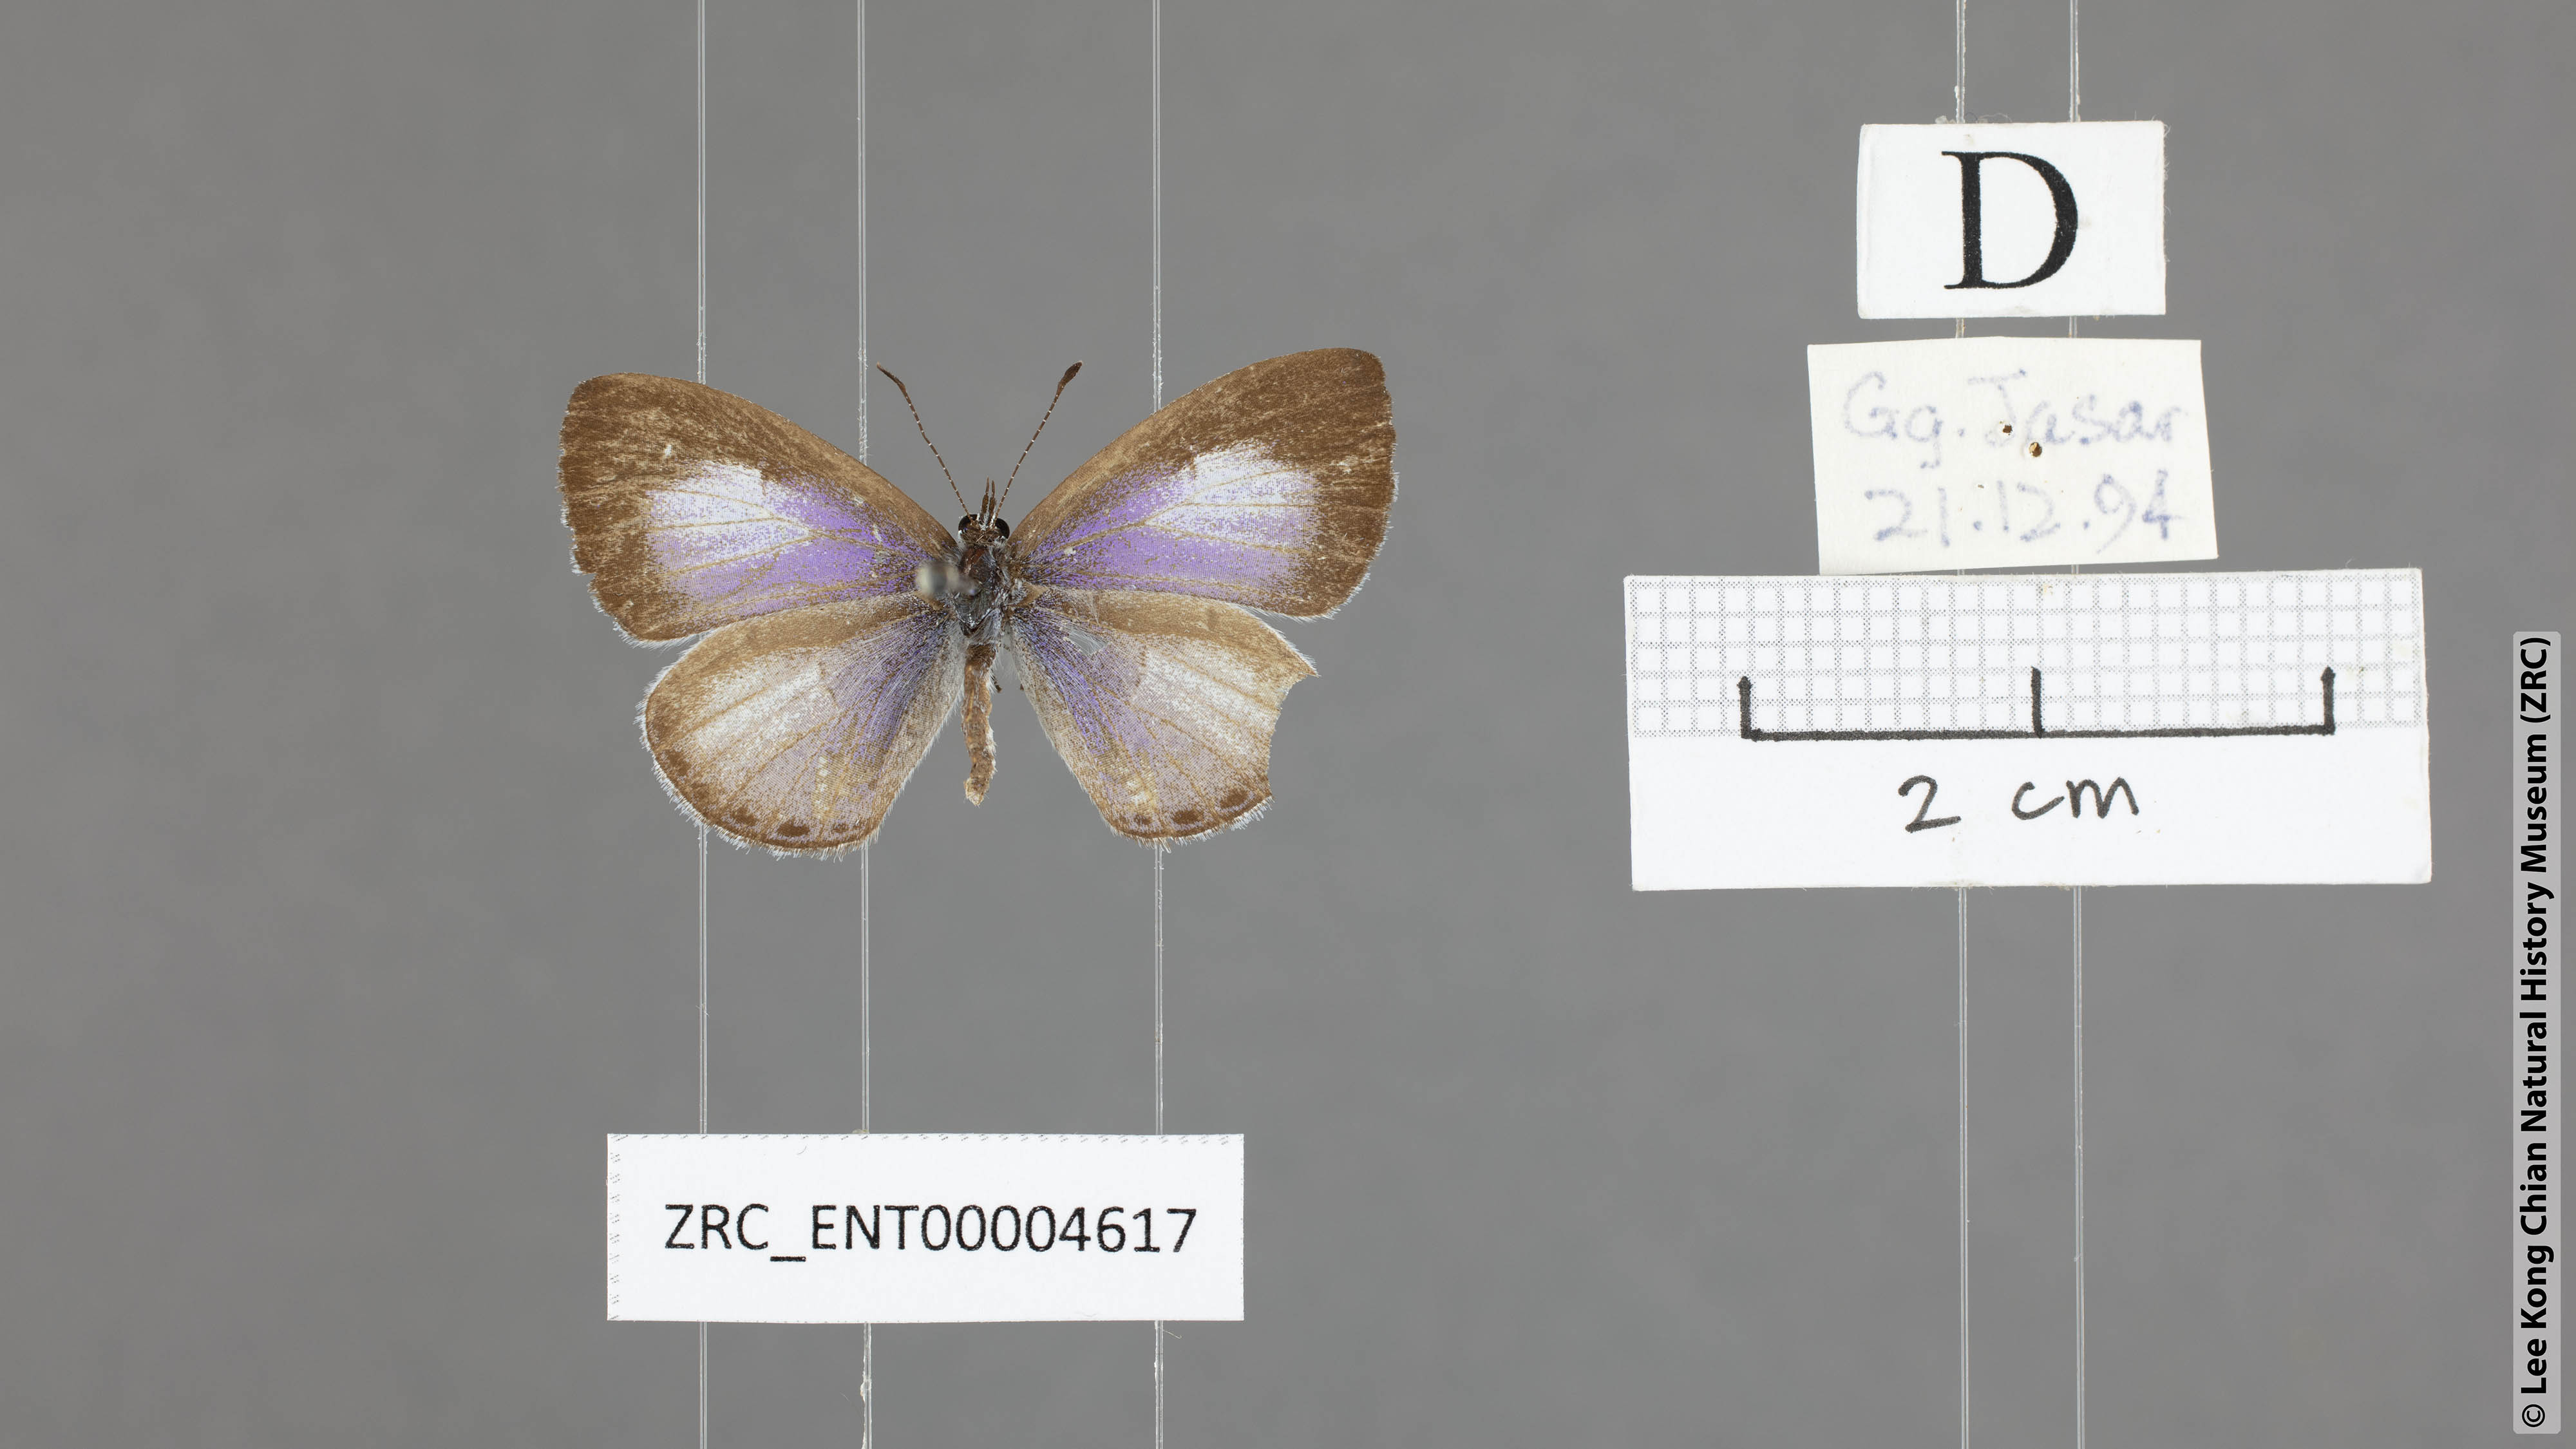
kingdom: Animalia
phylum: Arthropoda
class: Insecta
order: Lepidoptera
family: Lycaenidae
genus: Udara
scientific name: Udara camenae
